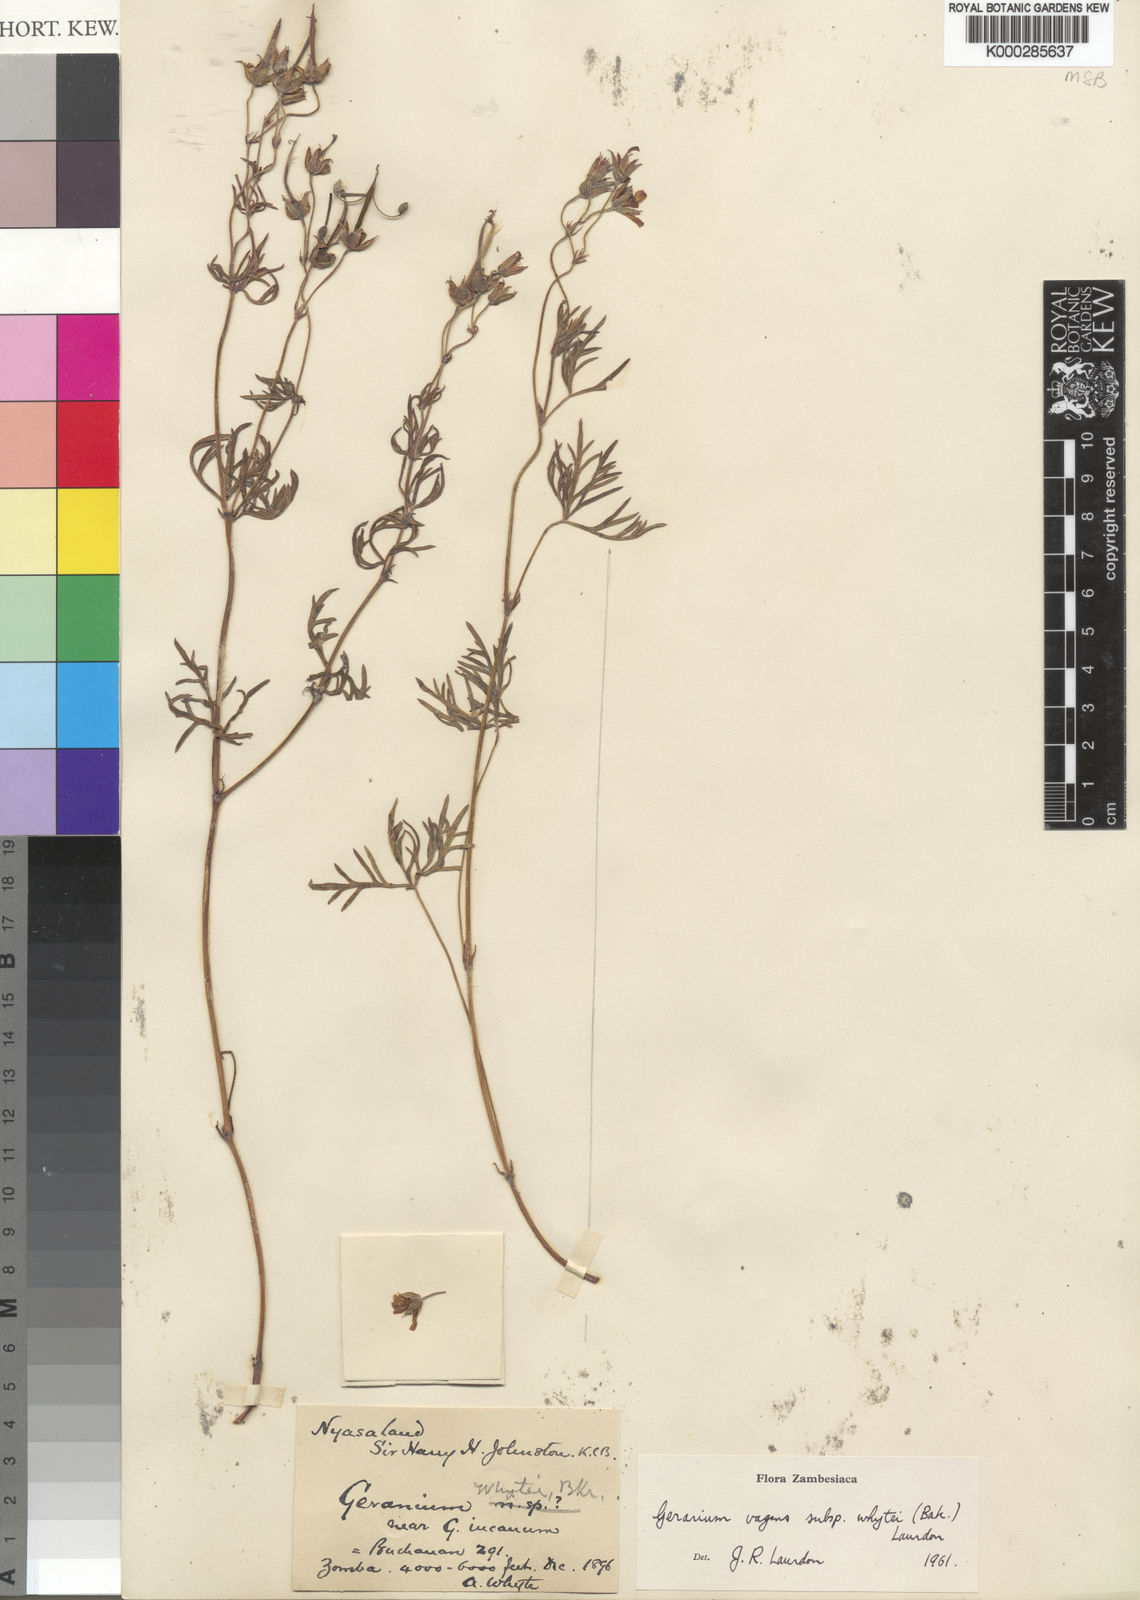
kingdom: Plantae
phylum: Tracheophyta
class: Magnoliopsida
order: Geraniales
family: Geraniaceae
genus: Geranium
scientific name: Geranium vagans
